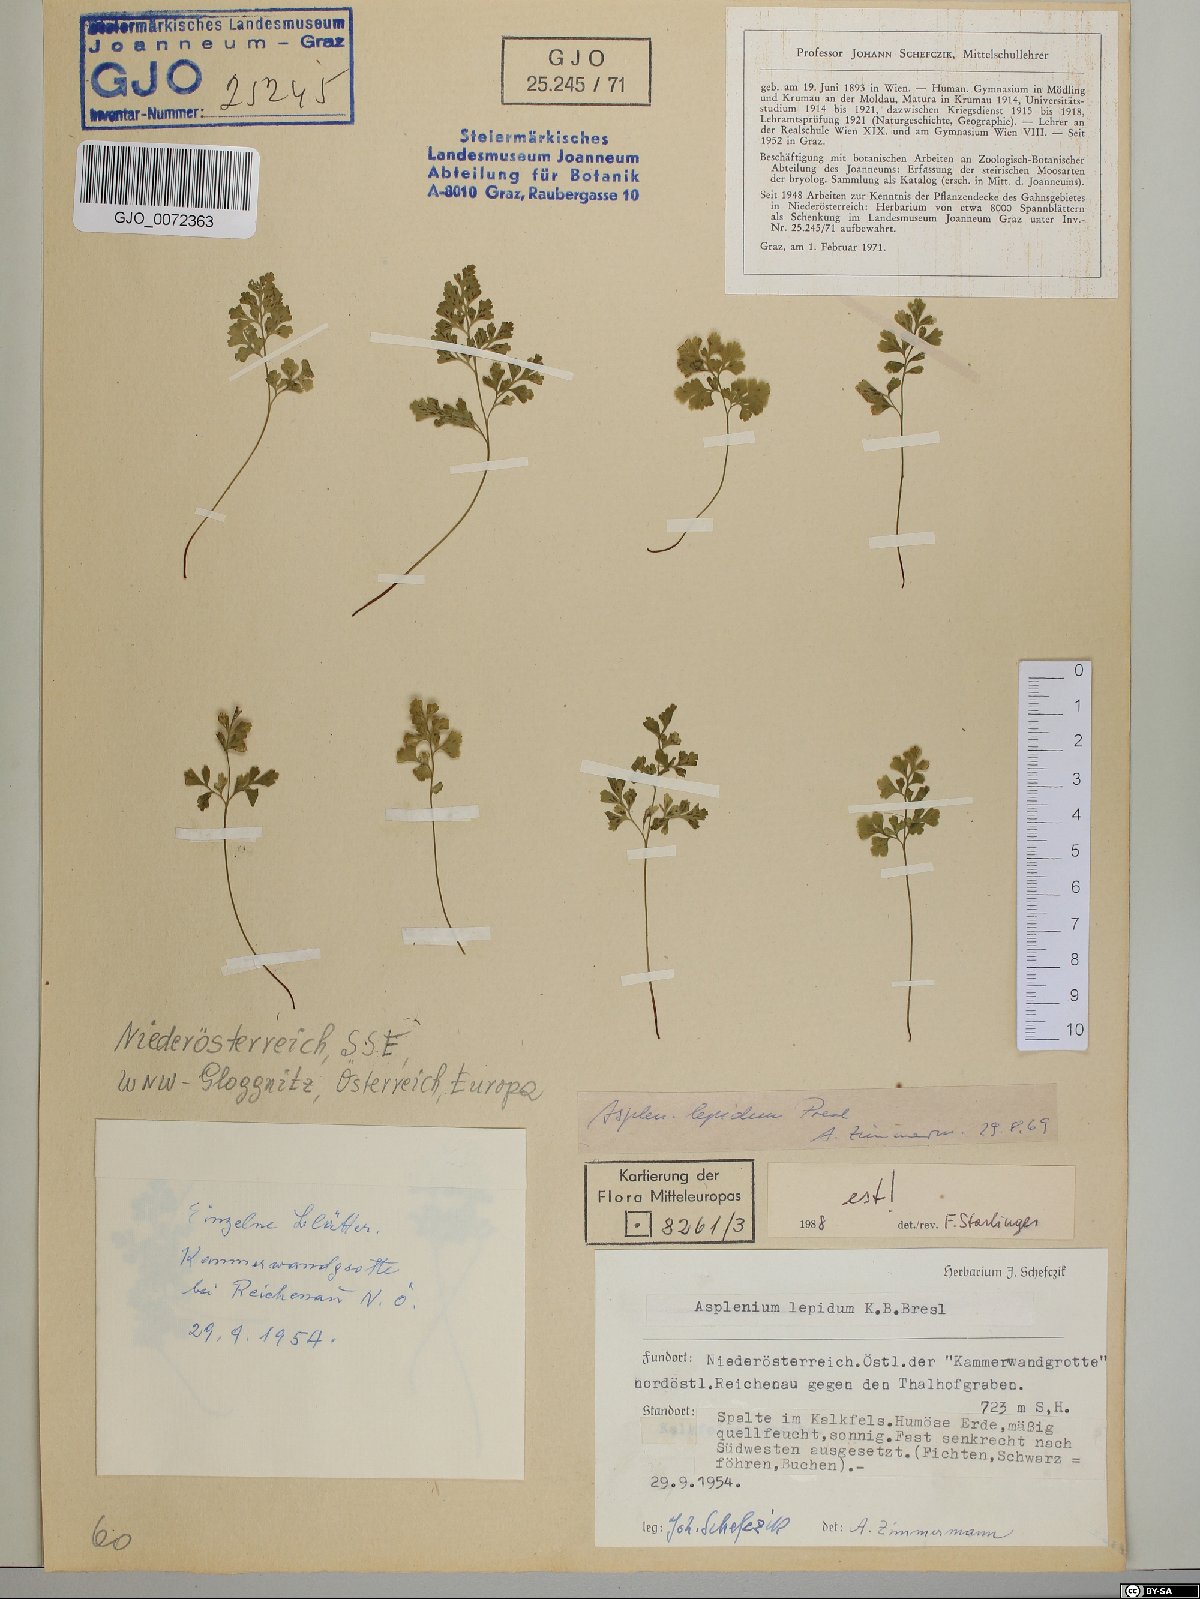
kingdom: Plantae
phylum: Tracheophyta
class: Polypodiopsida
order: Polypodiales
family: Aspleniaceae
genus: Asplenium
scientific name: Asplenium lepidum
